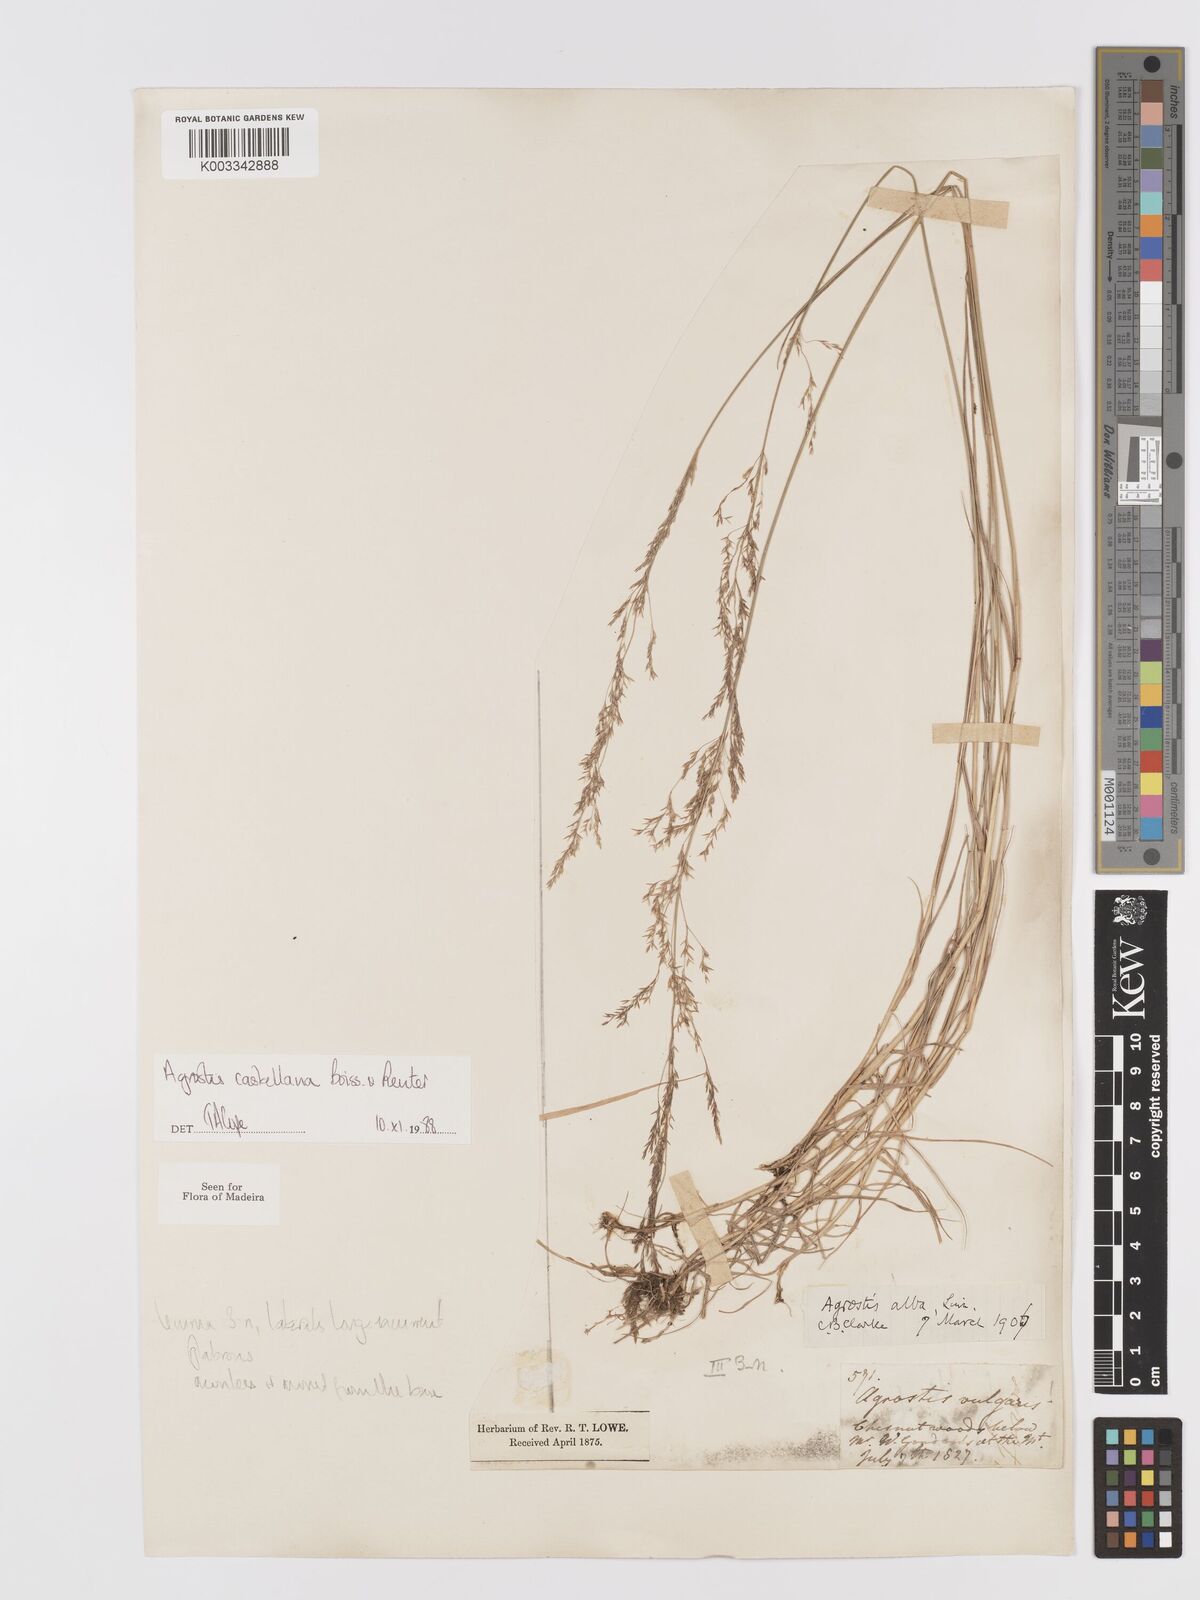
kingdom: Plantae
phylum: Tracheophyta
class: Liliopsida
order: Poales
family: Poaceae
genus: Agrostis
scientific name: Agrostis castellana
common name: Highland bent
